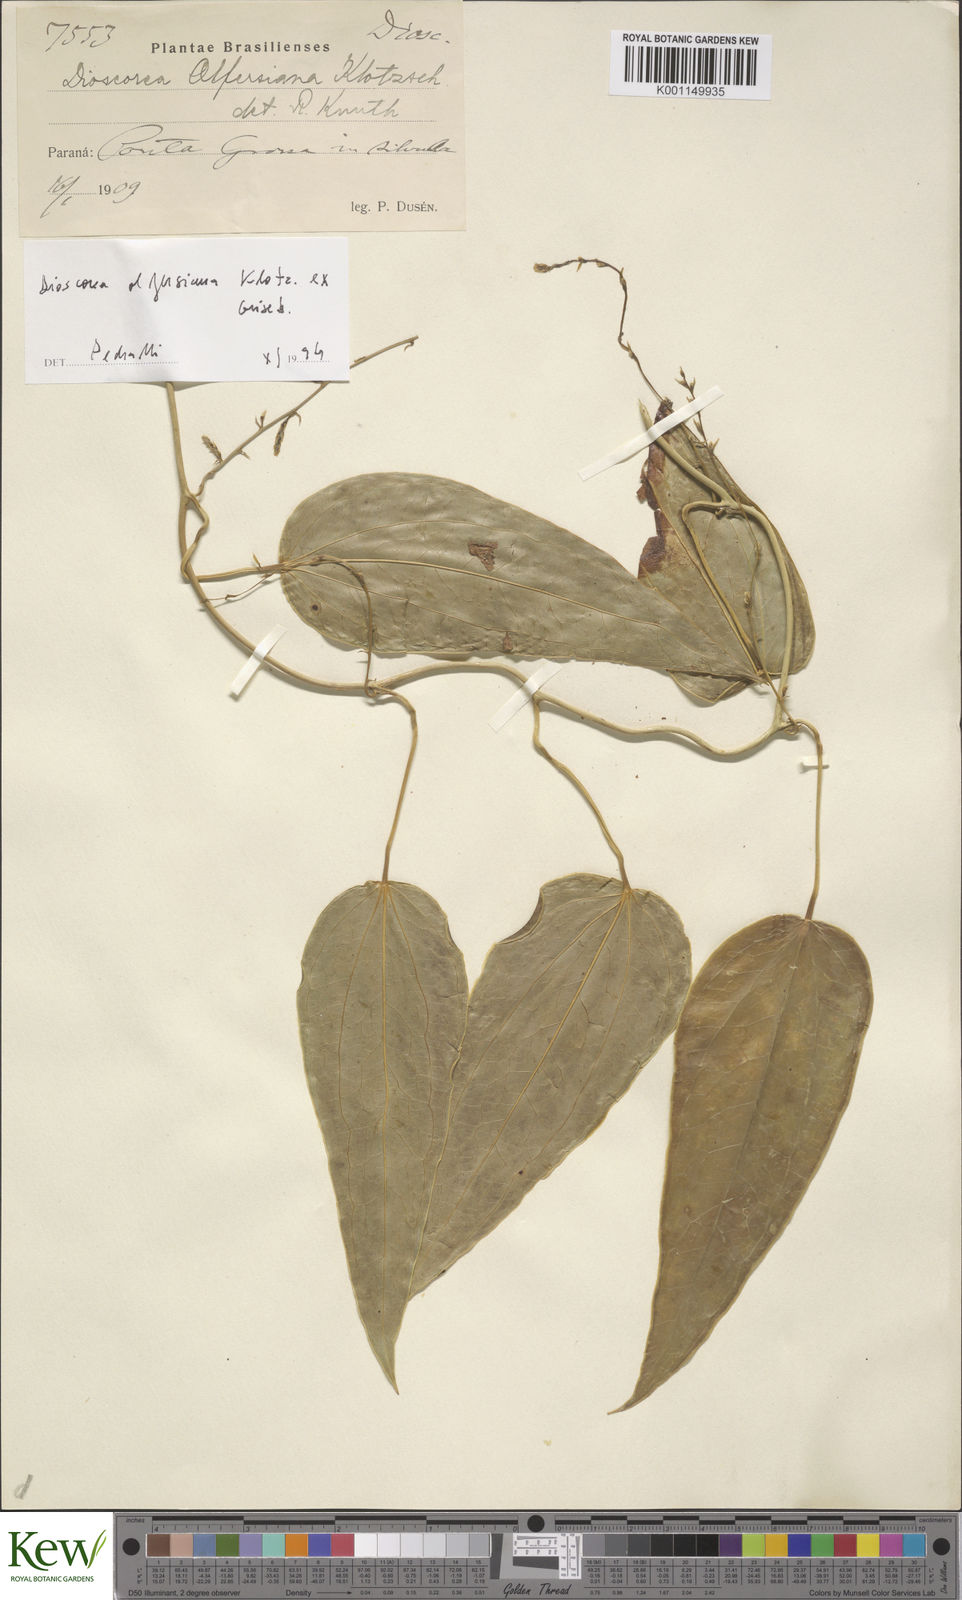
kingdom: Plantae
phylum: Tracheophyta
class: Liliopsida
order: Dioscoreales
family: Dioscoreaceae
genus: Dioscorea
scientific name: Dioscorea olfersiana
